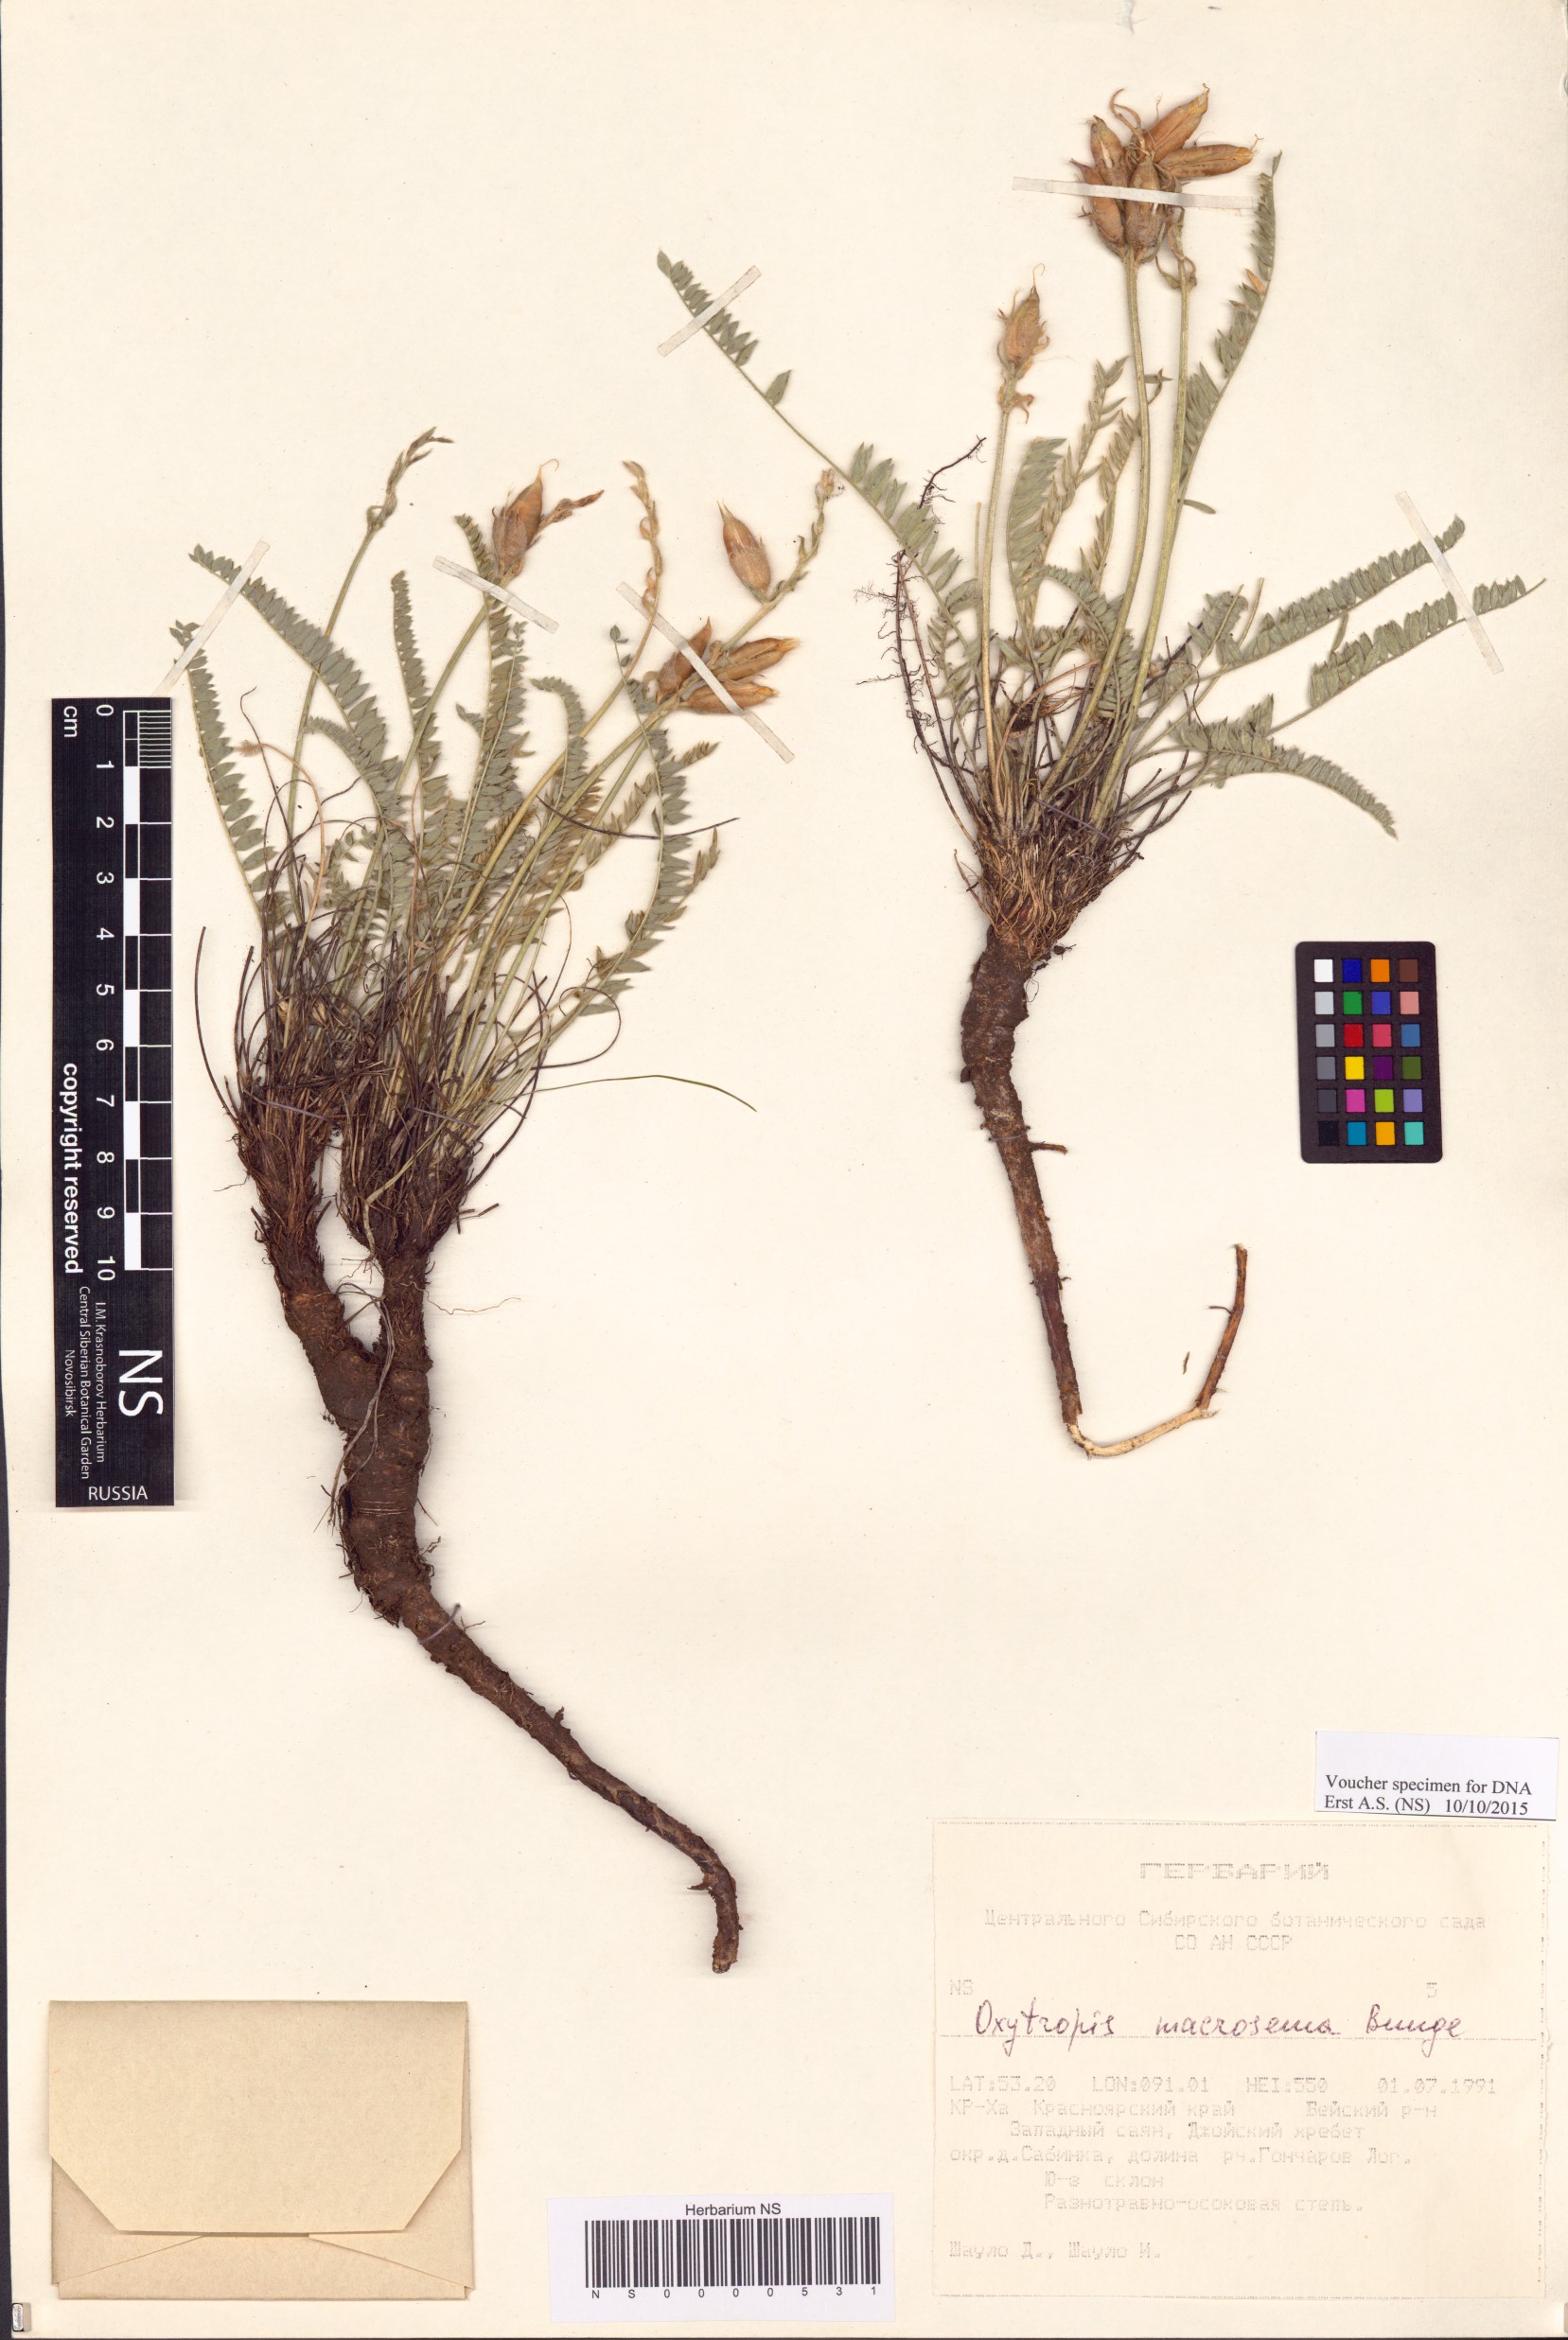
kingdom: Plantae
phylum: Tracheophyta
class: Magnoliopsida
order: Fabales
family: Fabaceae
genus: Oxytropis
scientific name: Oxytropis macrosema
